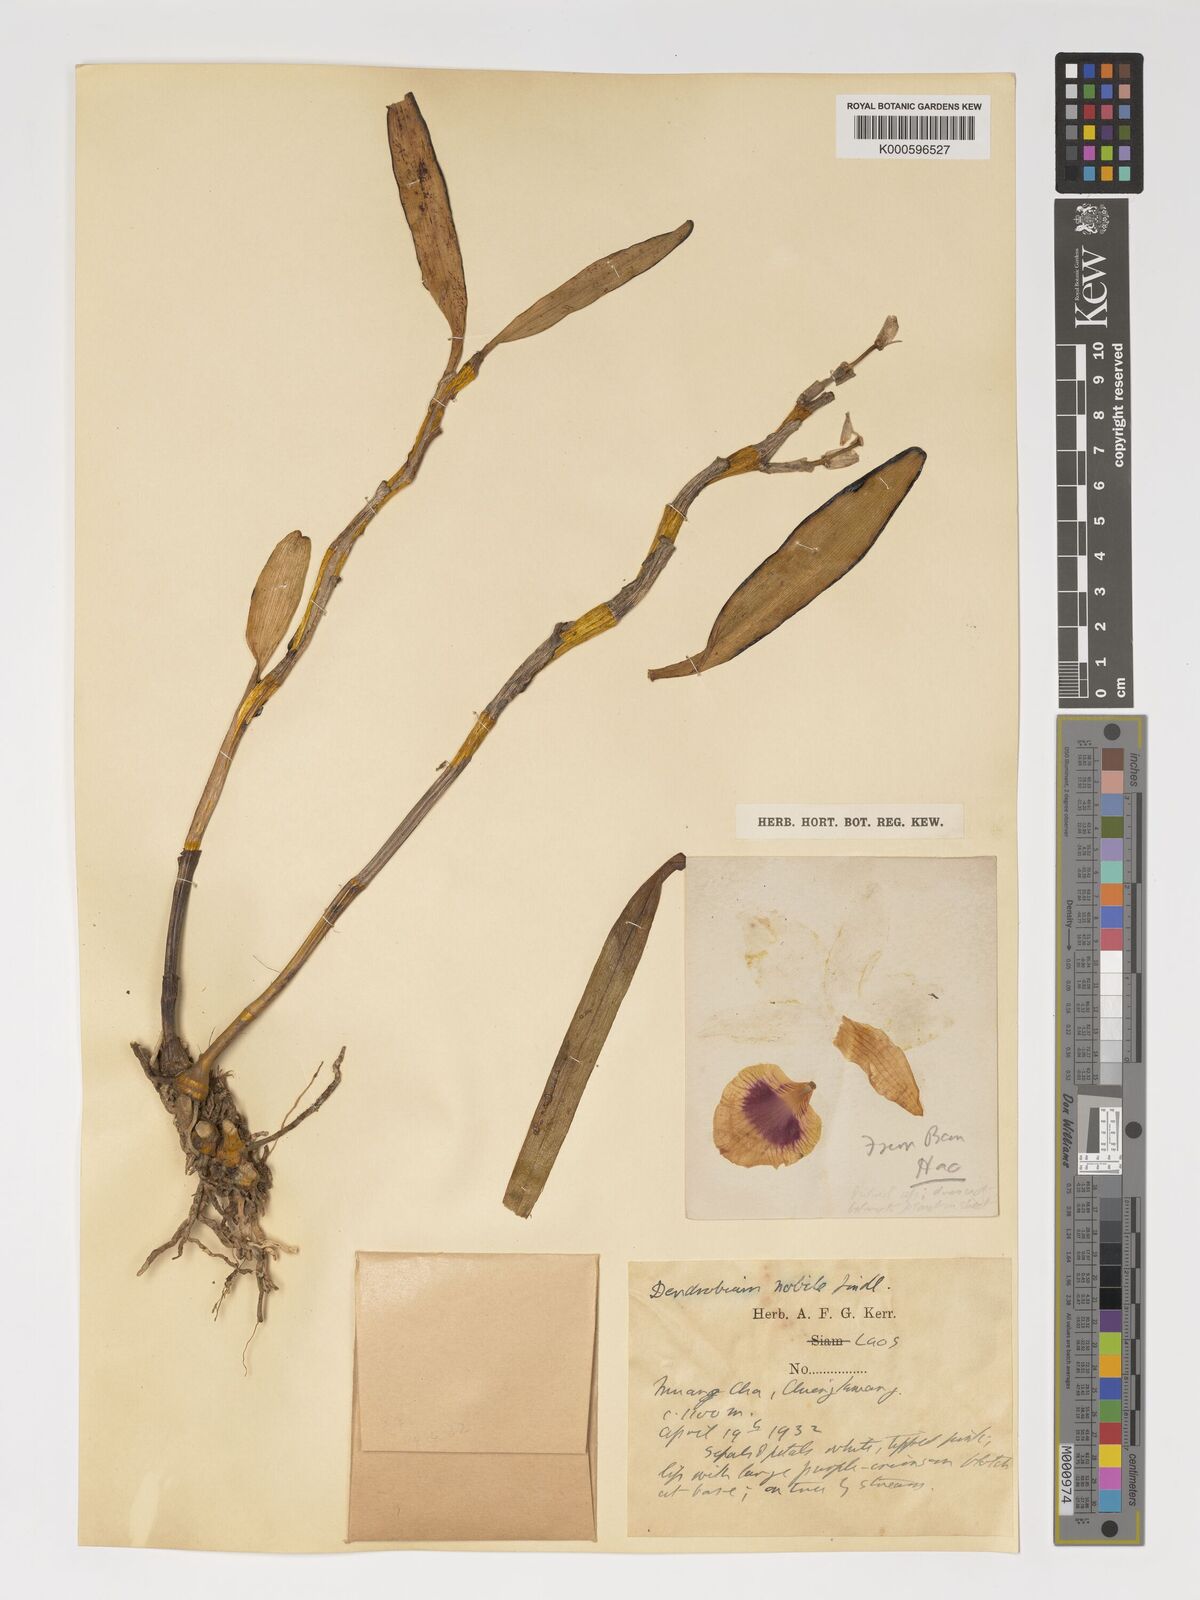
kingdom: Plantae
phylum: Tracheophyta
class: Liliopsida
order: Asparagales
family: Orchidaceae
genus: Dendrobium
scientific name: Dendrobium nobile
